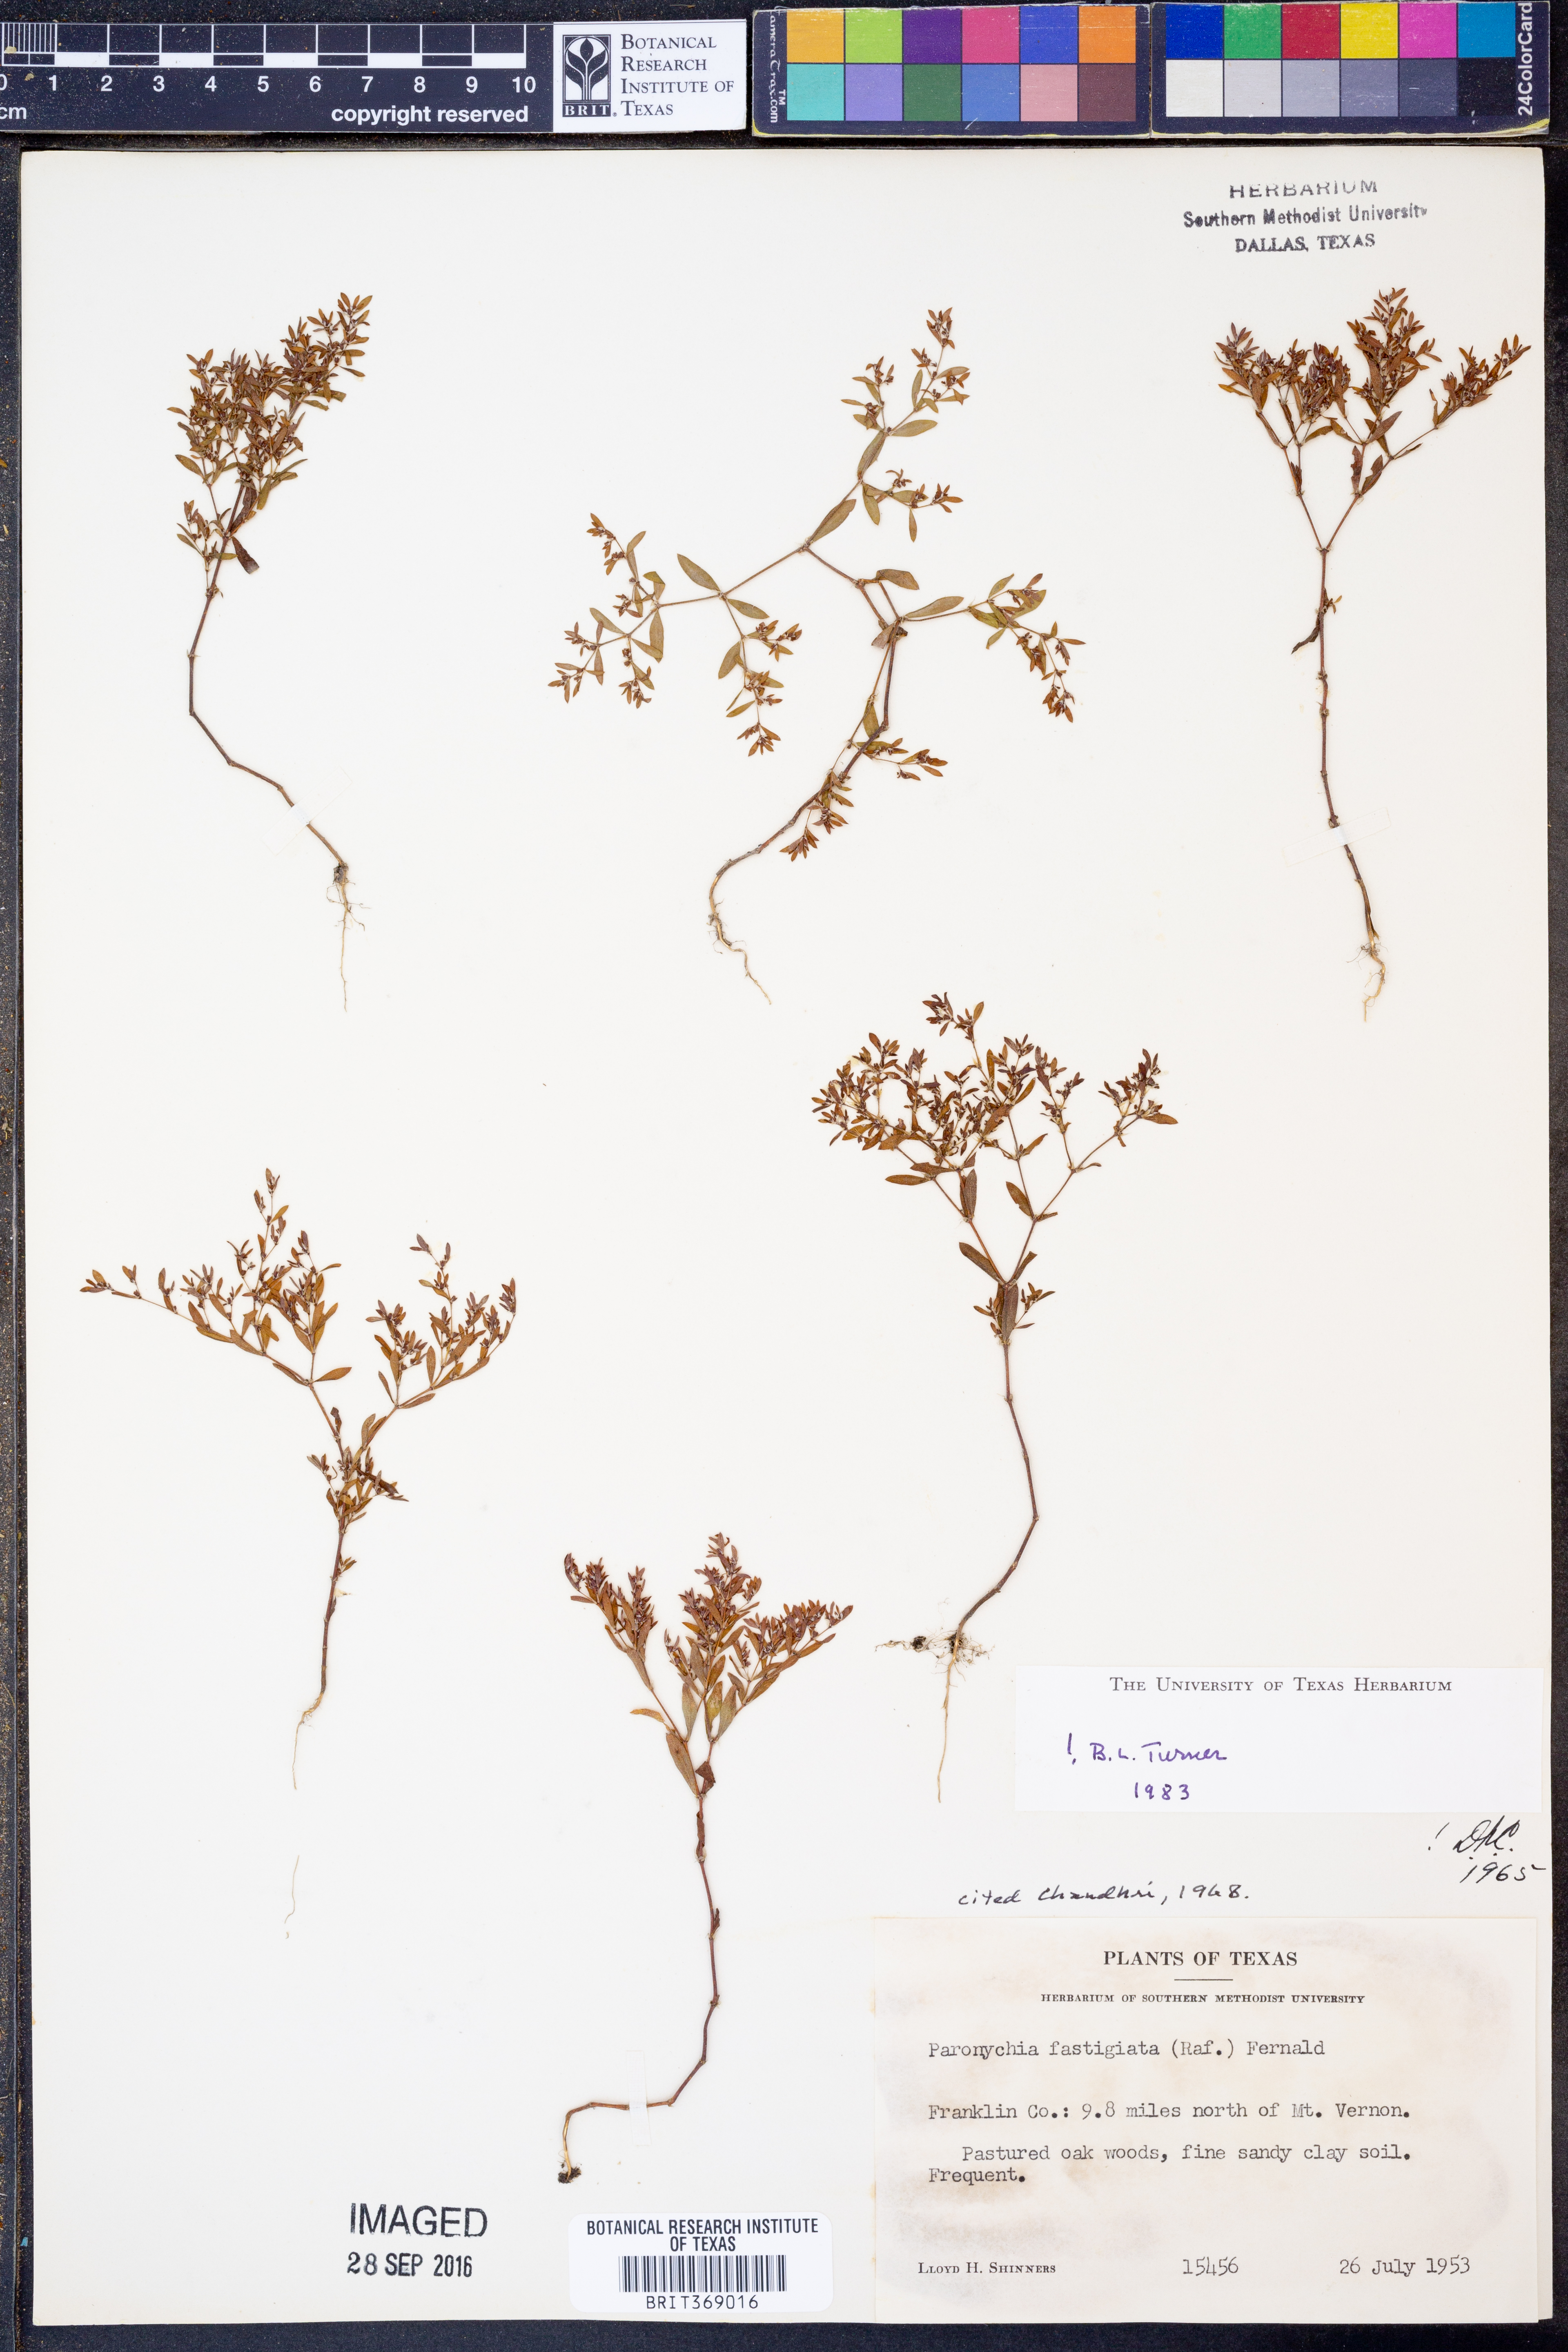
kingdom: Plantae
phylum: Tracheophyta
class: Magnoliopsida
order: Caryophyllales
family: Caryophyllaceae
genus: Paronychia
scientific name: Paronychia fastigiata
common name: Branching forked whitlow-wort
